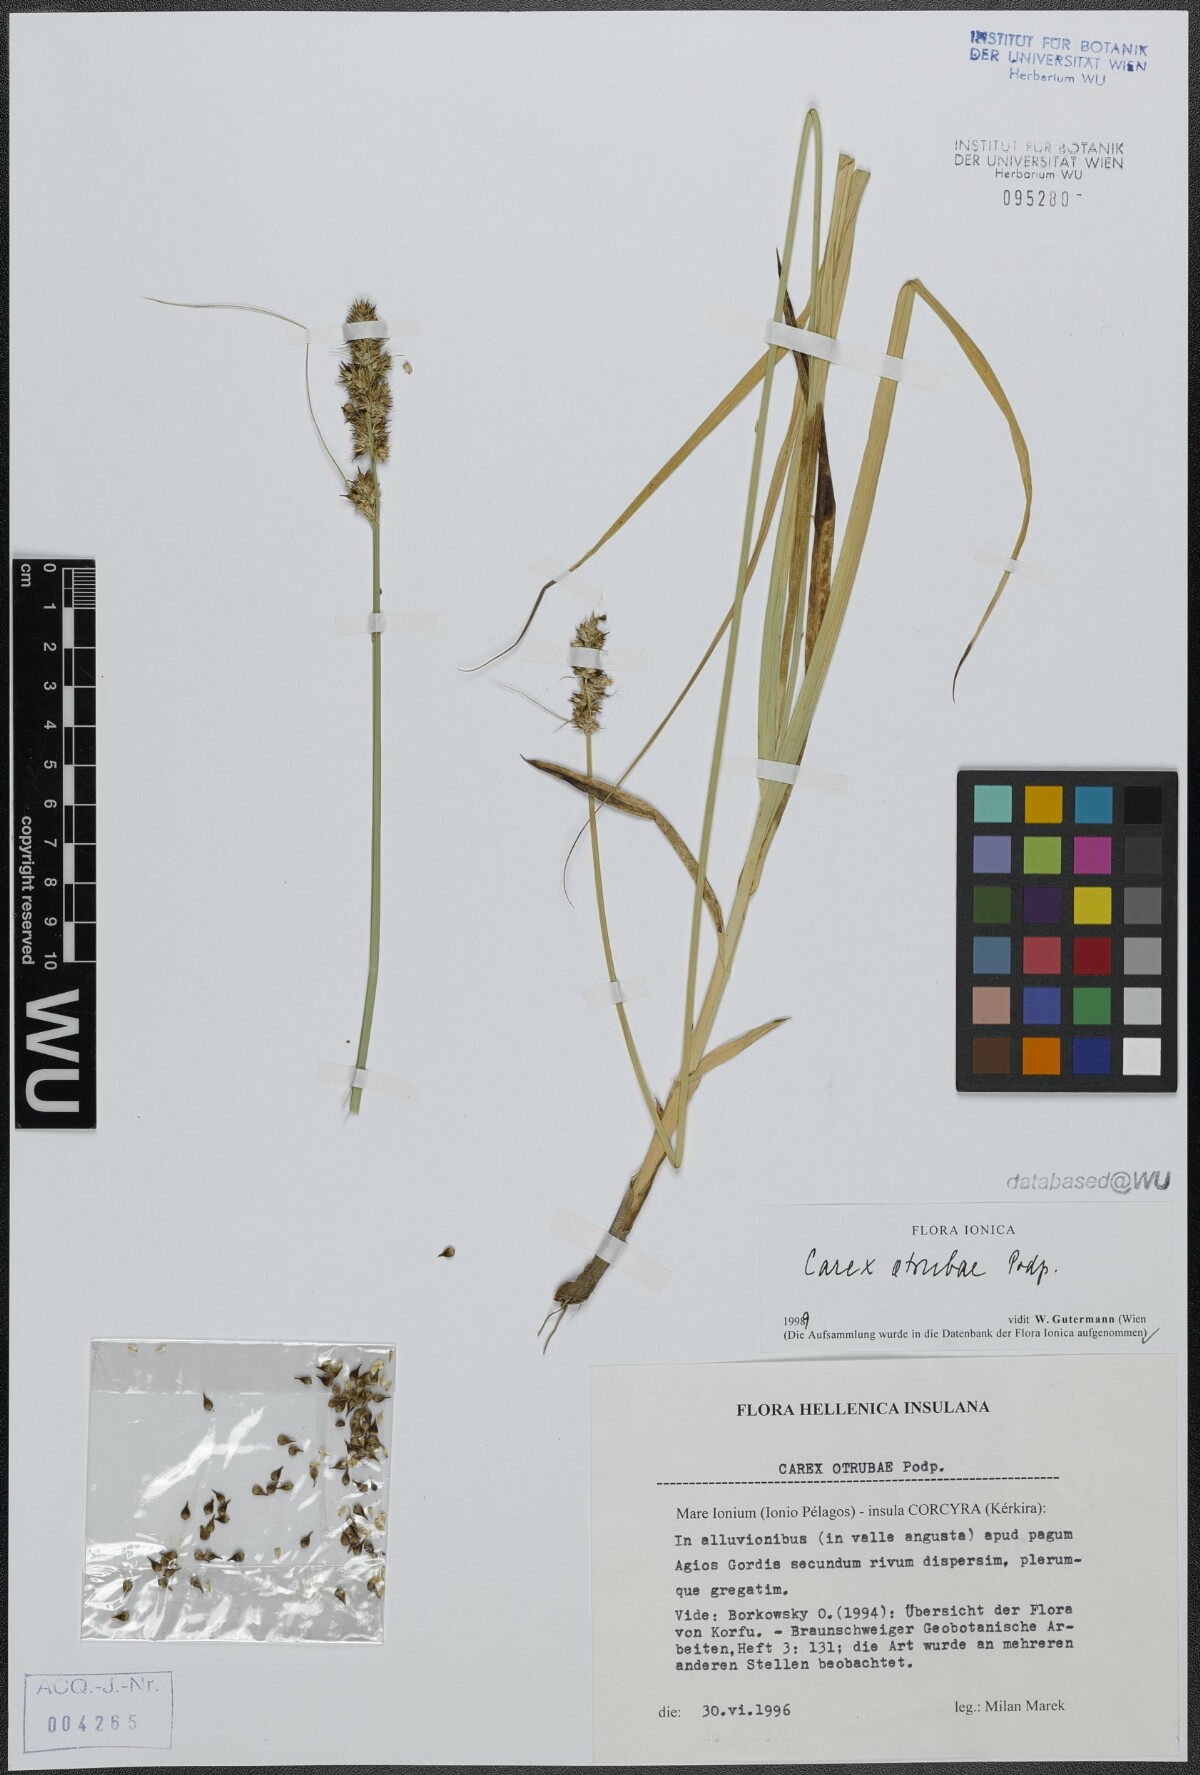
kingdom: Plantae
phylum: Tracheophyta
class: Liliopsida
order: Poales
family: Cyperaceae
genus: Carex
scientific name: Carex otrubae
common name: False fox-sedge
